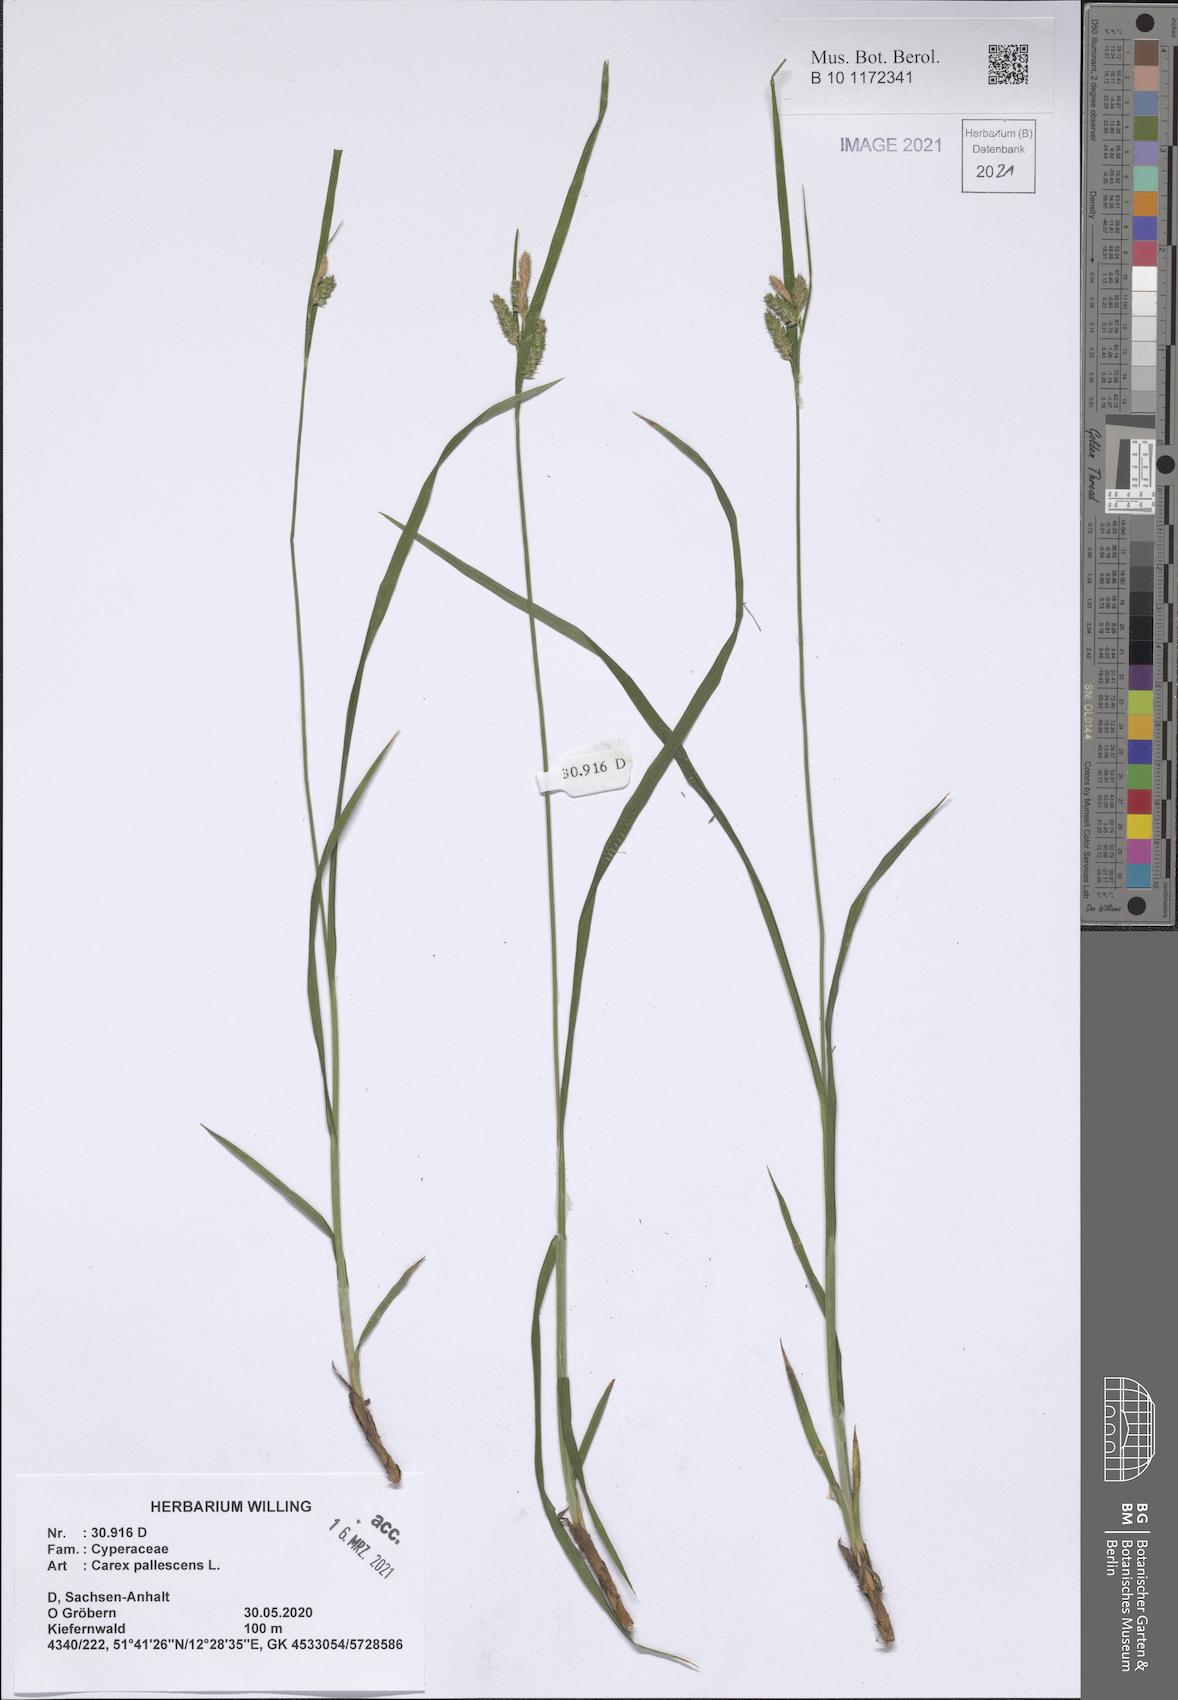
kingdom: Plantae
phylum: Tracheophyta
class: Liliopsida
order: Poales
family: Cyperaceae
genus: Carex
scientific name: Carex pallescens
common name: Pale sedge
